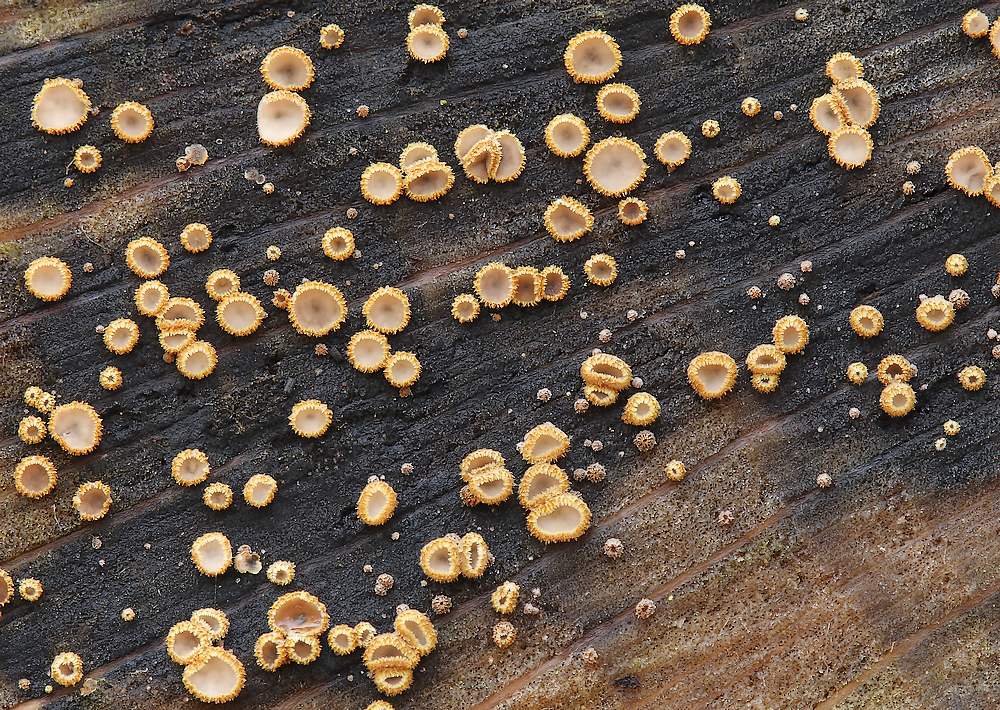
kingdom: Fungi
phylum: Ascomycota
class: Leotiomycetes
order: Helotiales
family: Lachnaceae
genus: Trichopeziza
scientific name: Trichopeziza subsulphurea
